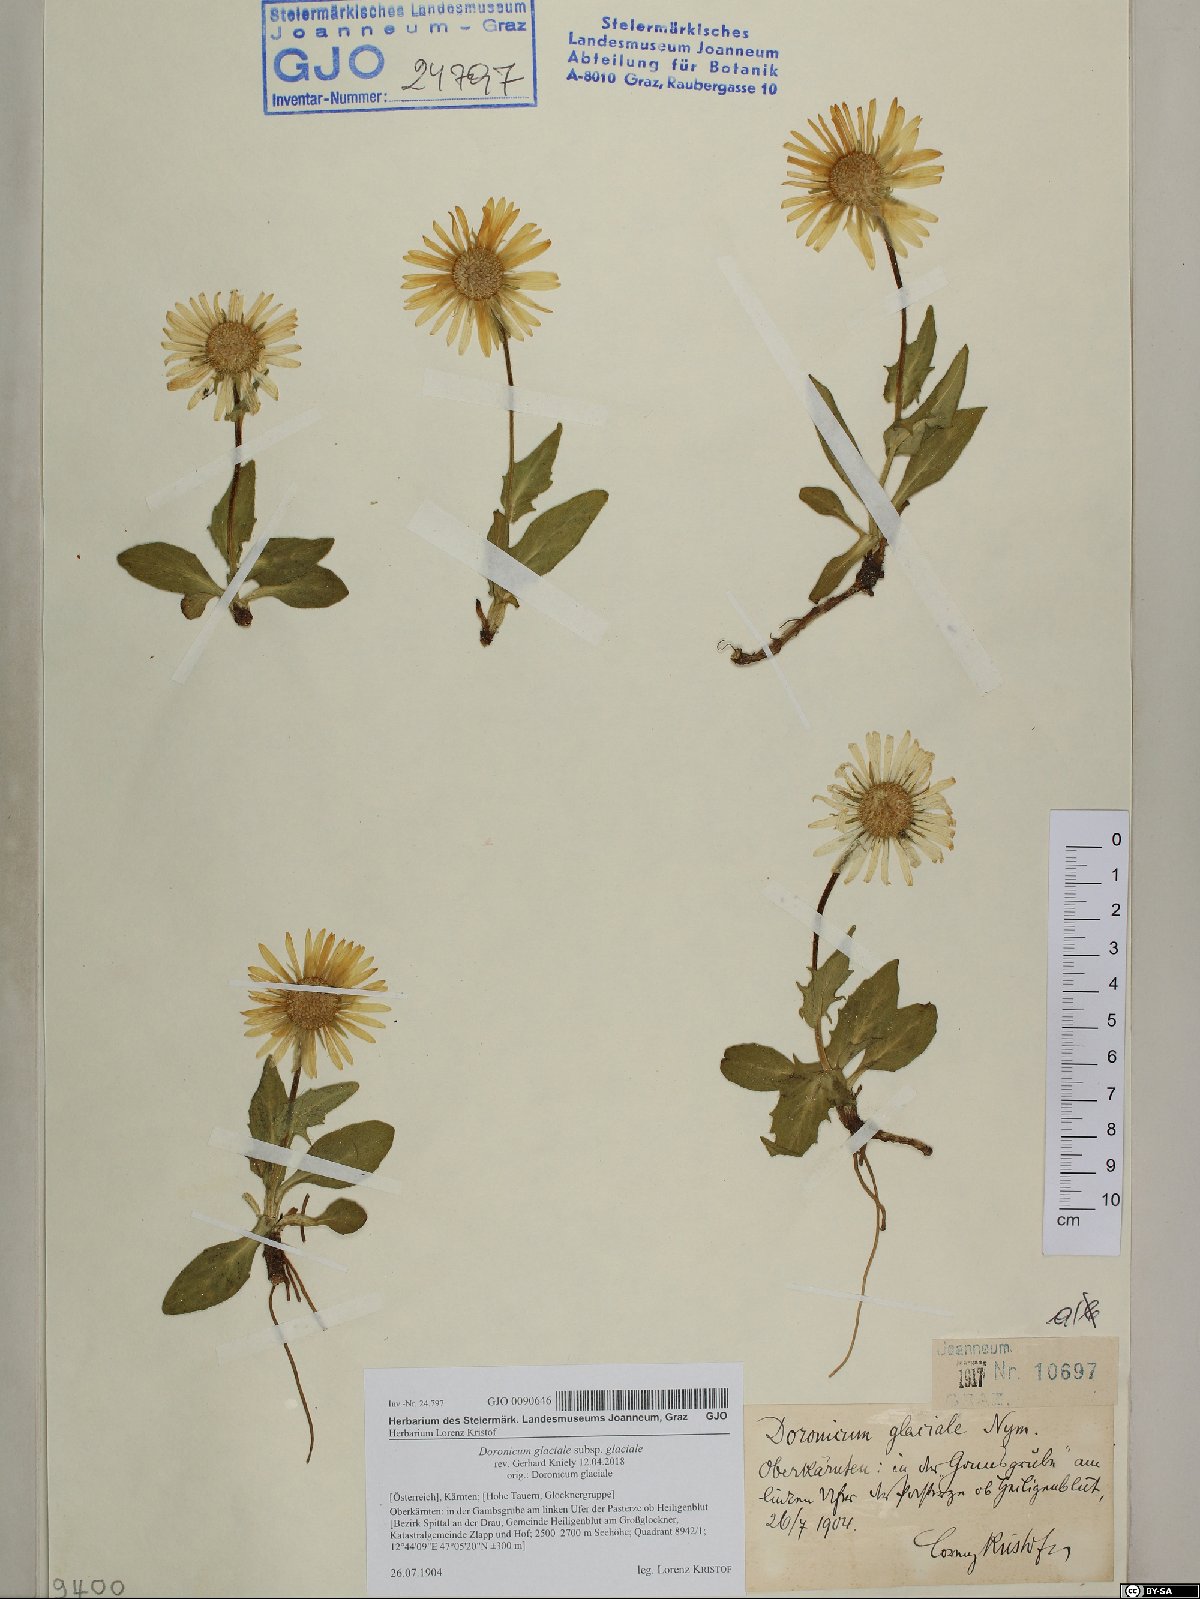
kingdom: Plantae
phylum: Tracheophyta
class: Magnoliopsida
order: Asterales
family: Asteraceae
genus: Doronicum
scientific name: Doronicum glaciale
